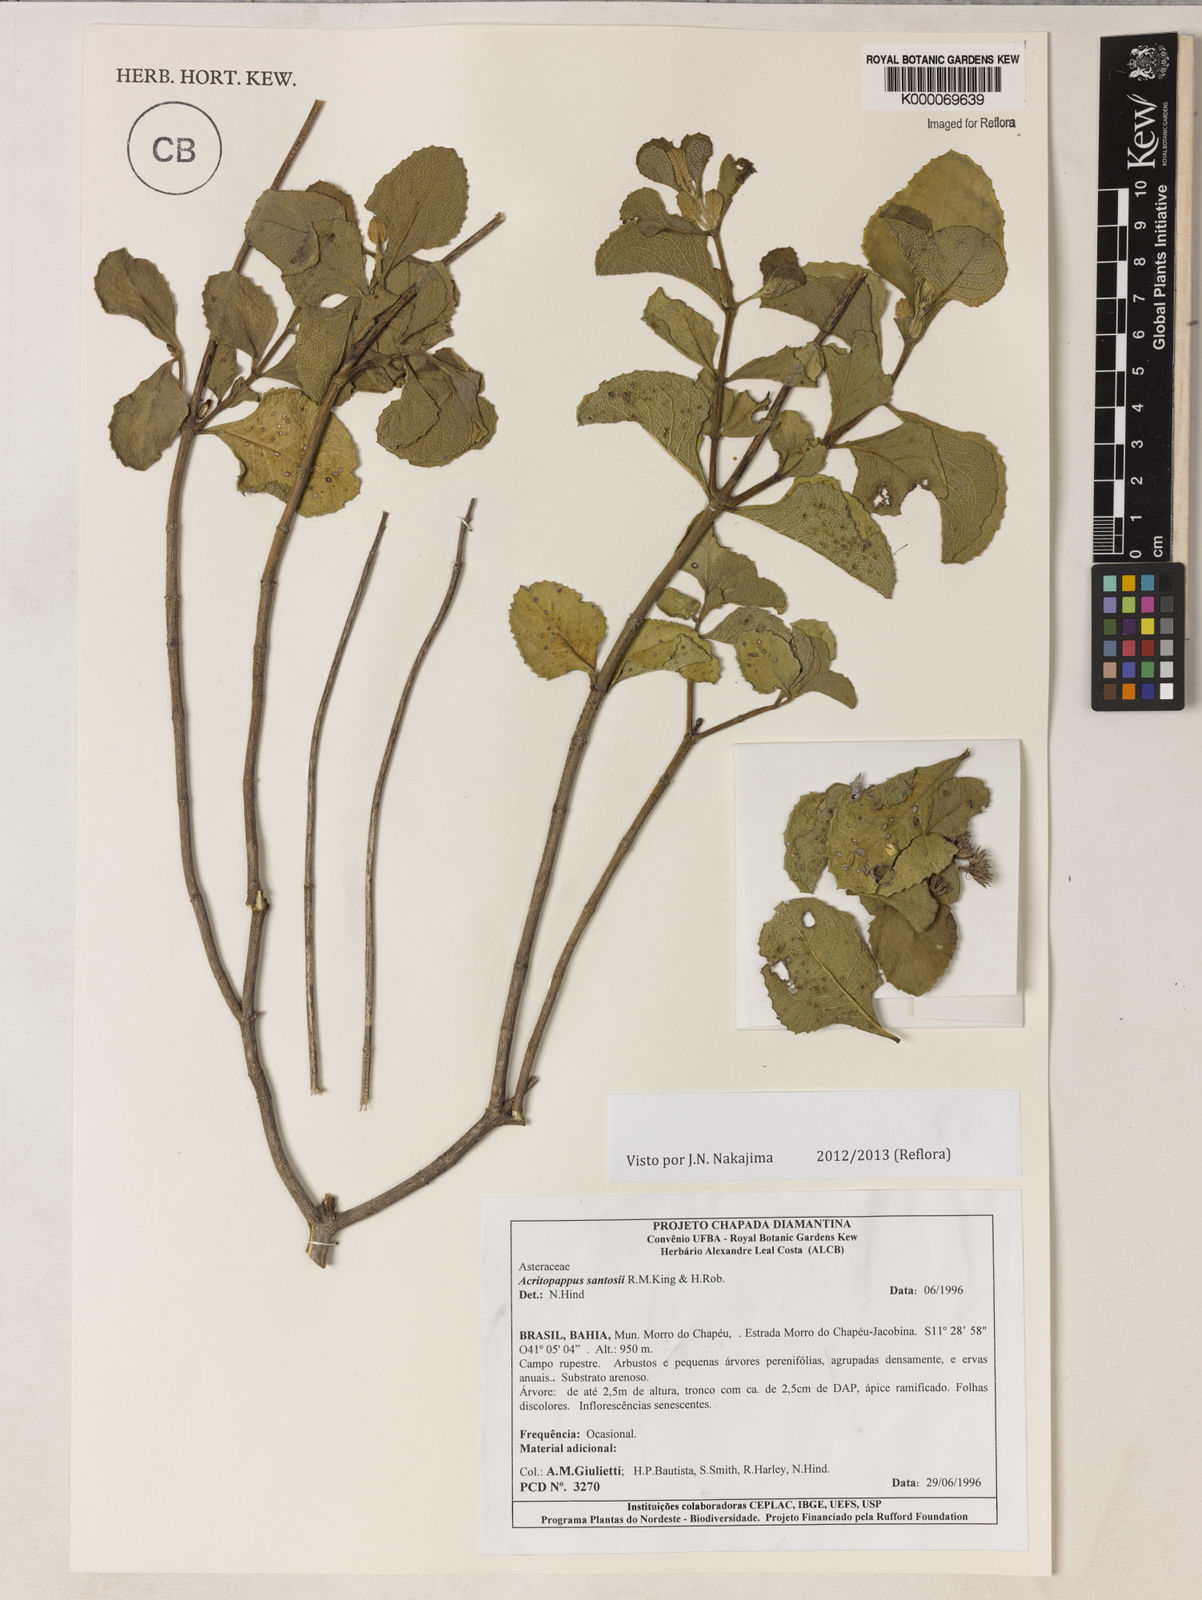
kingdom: Plantae
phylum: Tracheophyta
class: Magnoliopsida
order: Asterales
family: Asteraceae
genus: Acritopappus
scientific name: Acritopappus santosii
